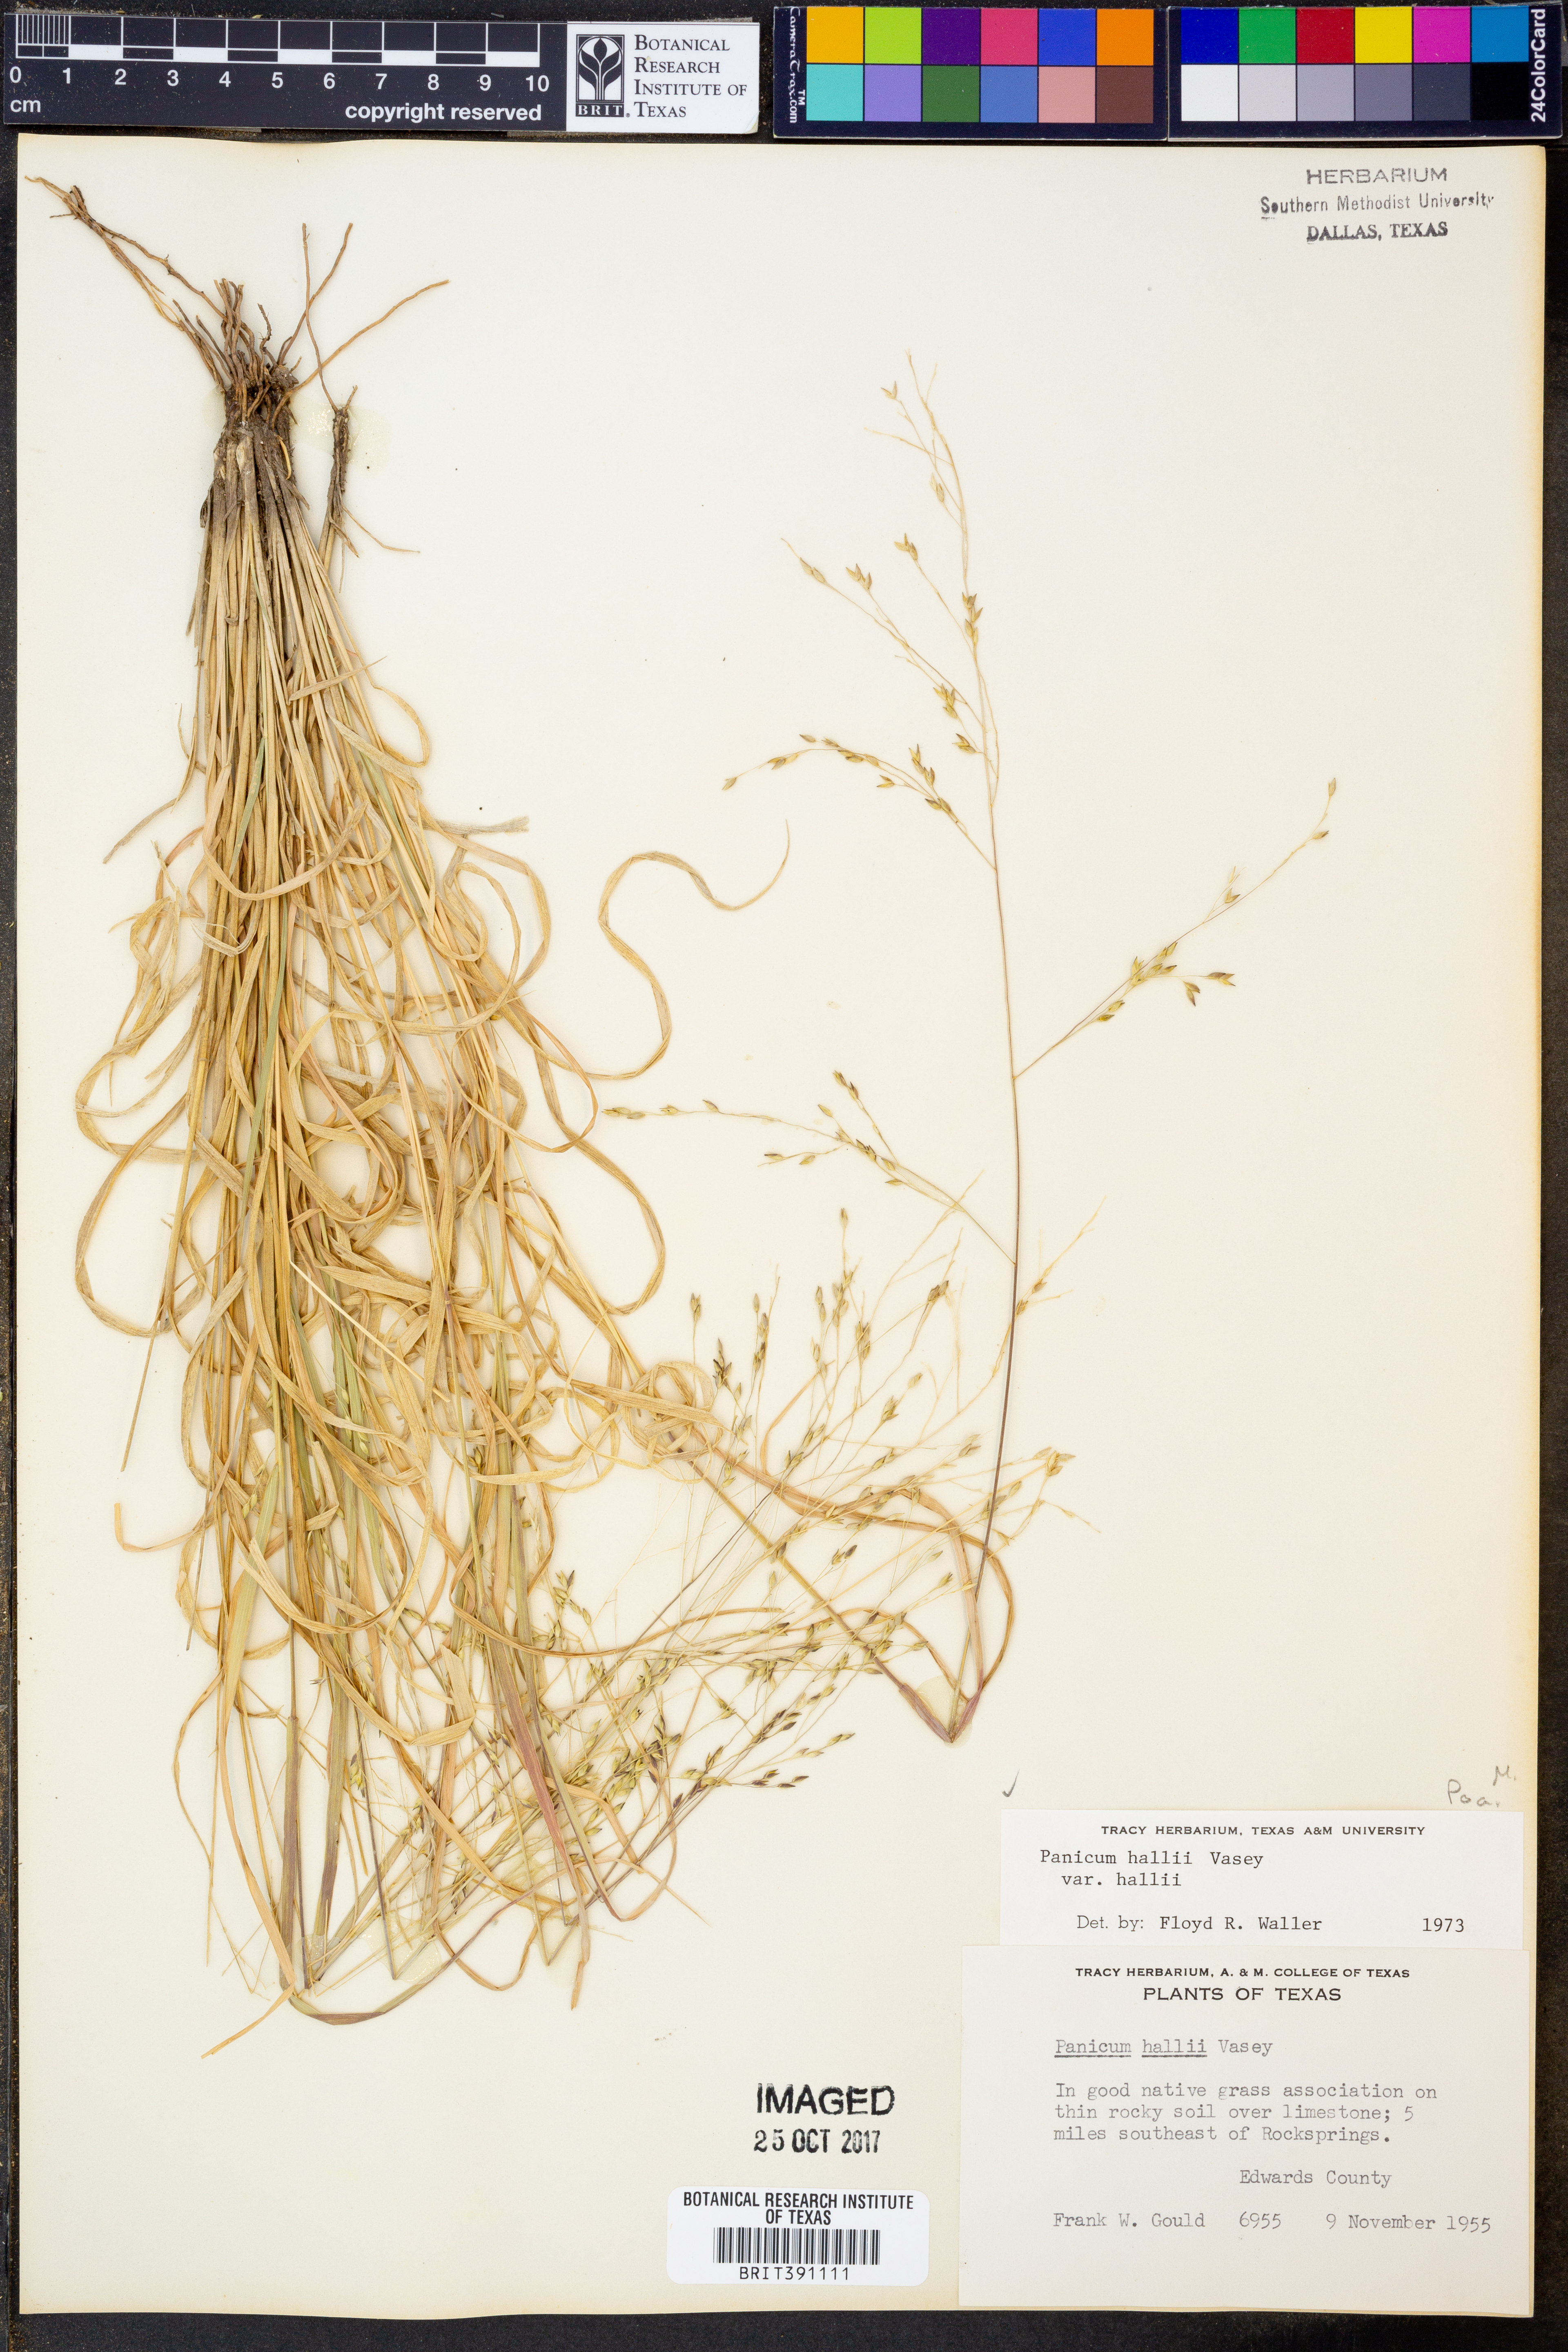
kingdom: Plantae
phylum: Tracheophyta
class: Liliopsida
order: Poales
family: Poaceae
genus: Panicum
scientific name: Panicum hallii
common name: Hall's witchgrass
